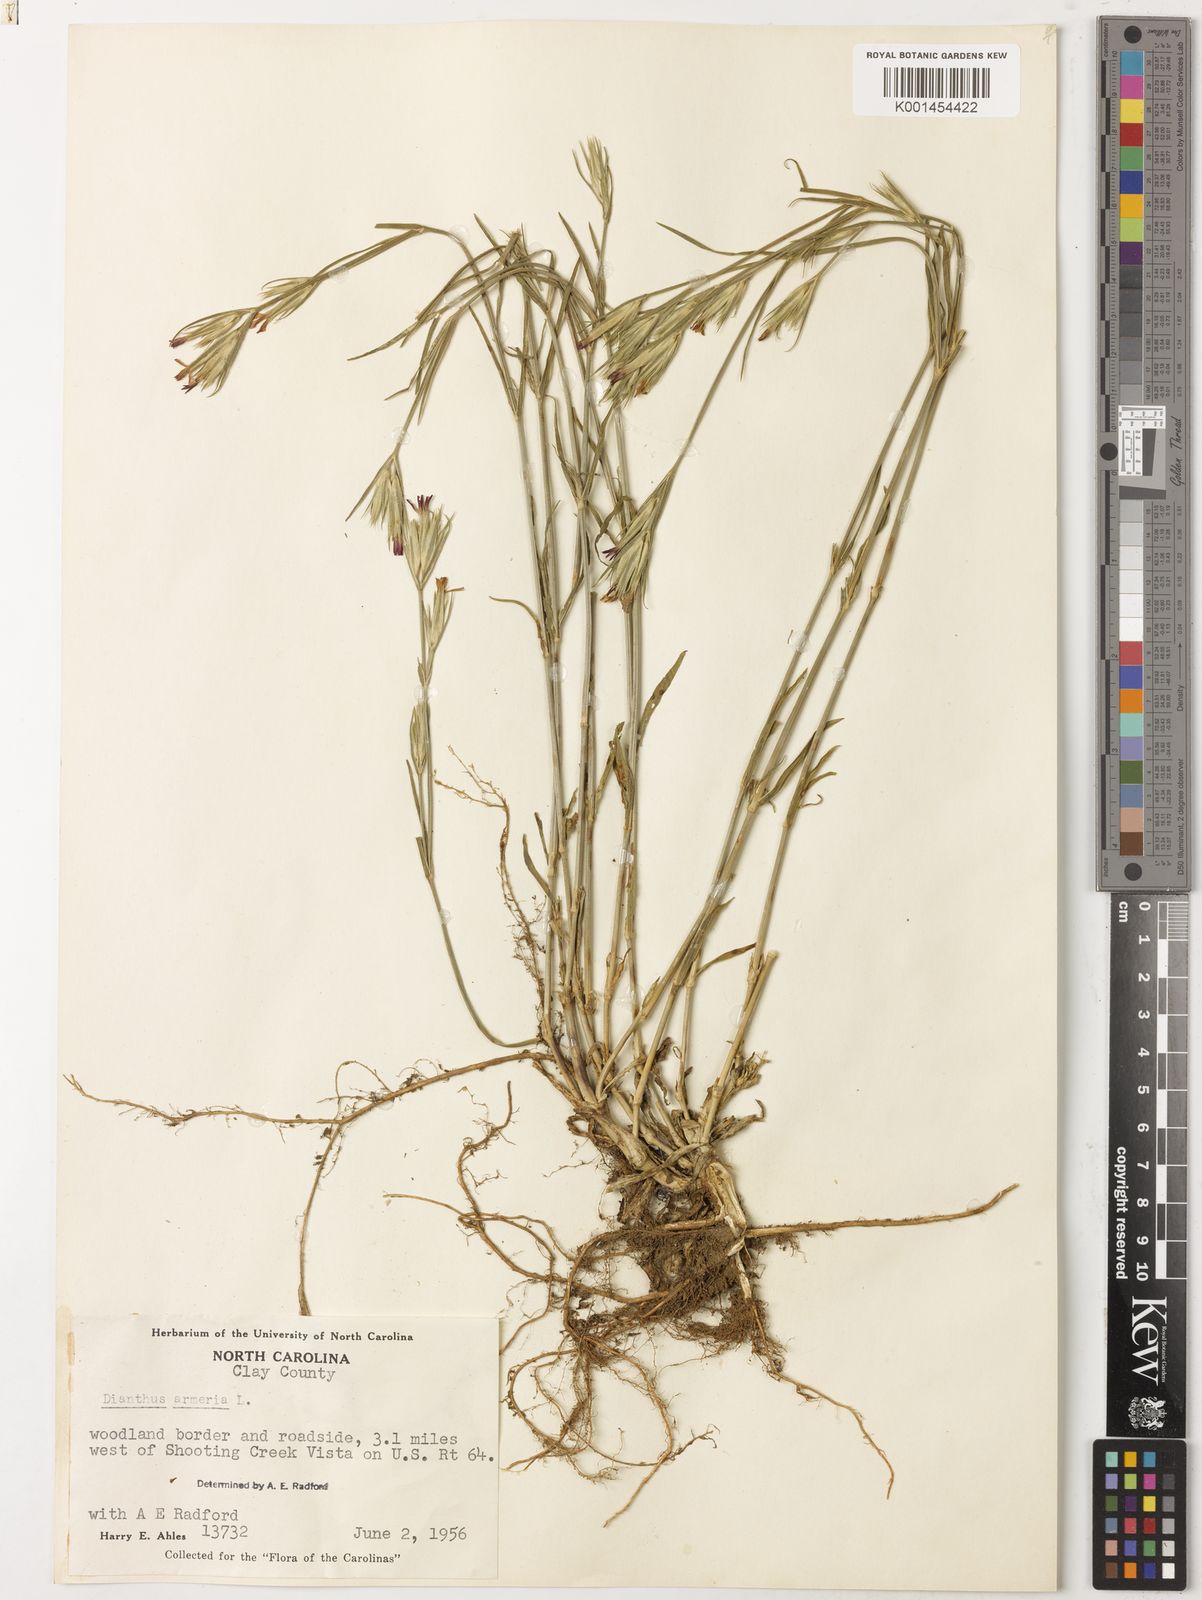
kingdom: Plantae
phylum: Tracheophyta
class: Magnoliopsida
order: Caryophyllales
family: Caryophyllaceae
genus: Dianthus
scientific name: Dianthus armeria
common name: Deptford pink
